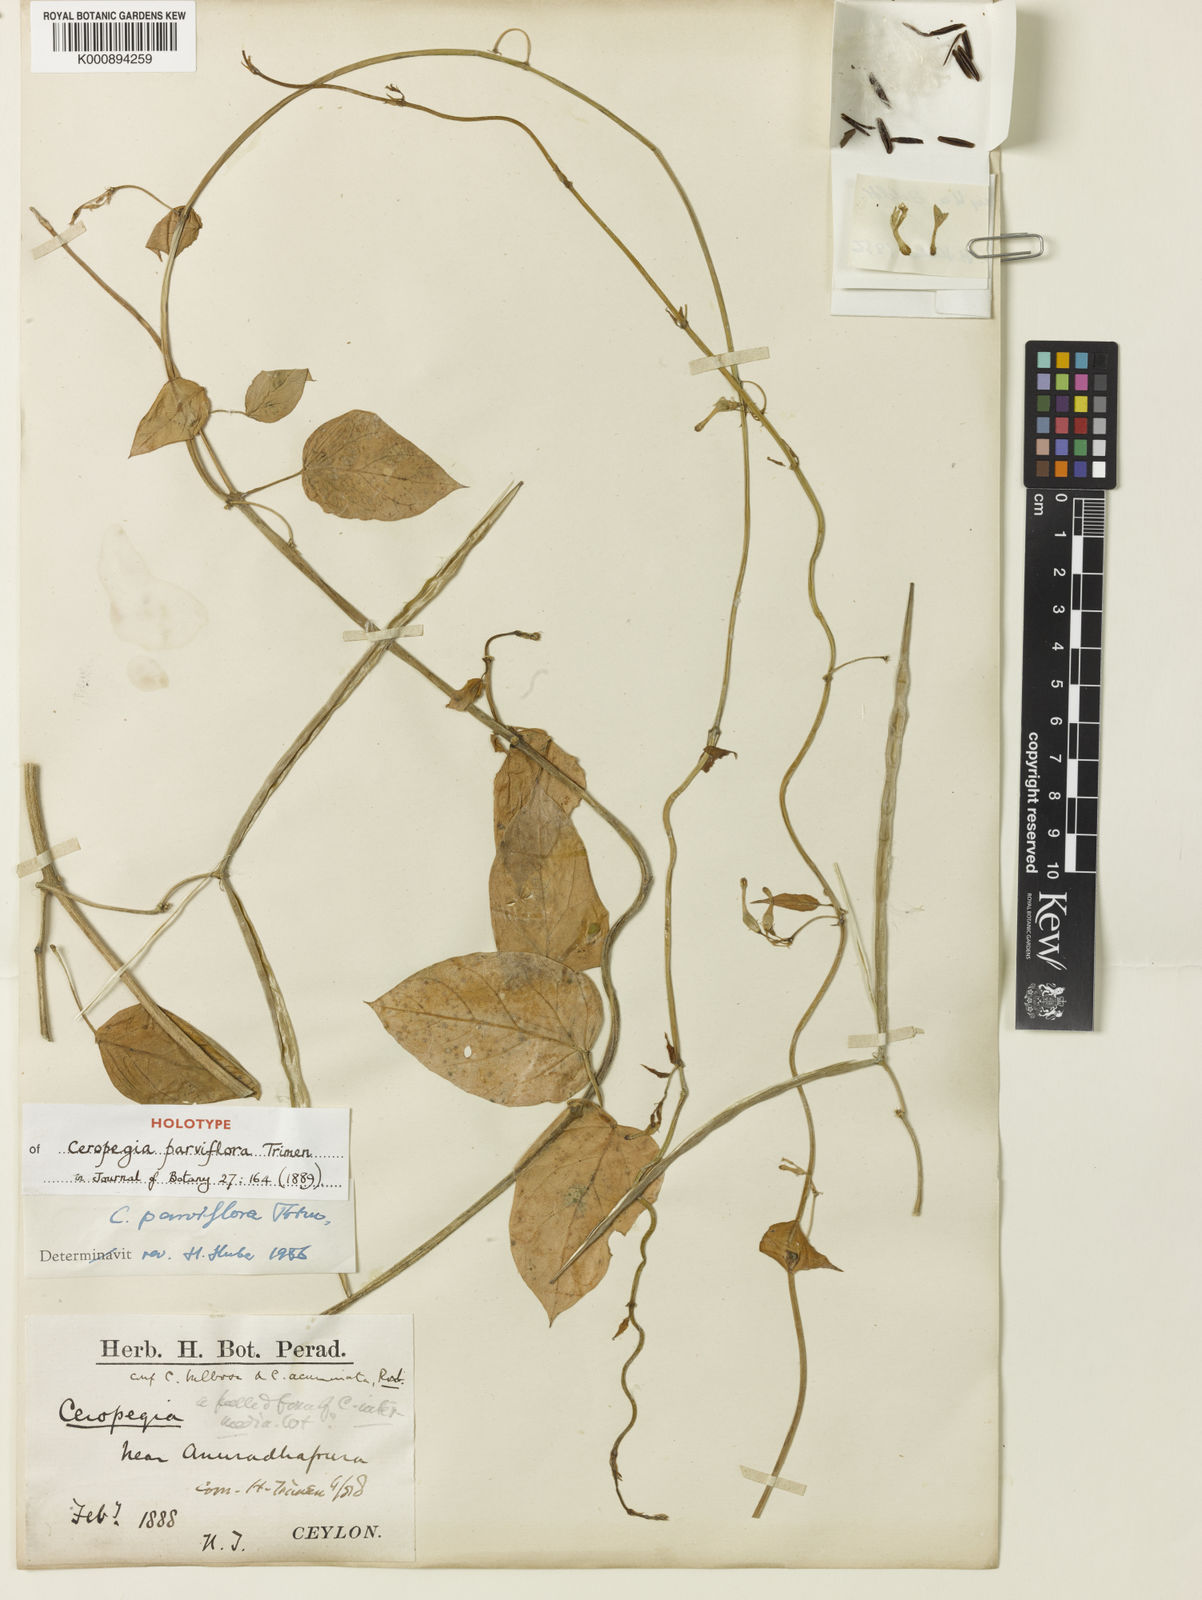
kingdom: Plantae
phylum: Tracheophyta
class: Magnoliopsida
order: Gentianales
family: Apocynaceae
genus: Ceropegia
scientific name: Ceropegia parviflora
